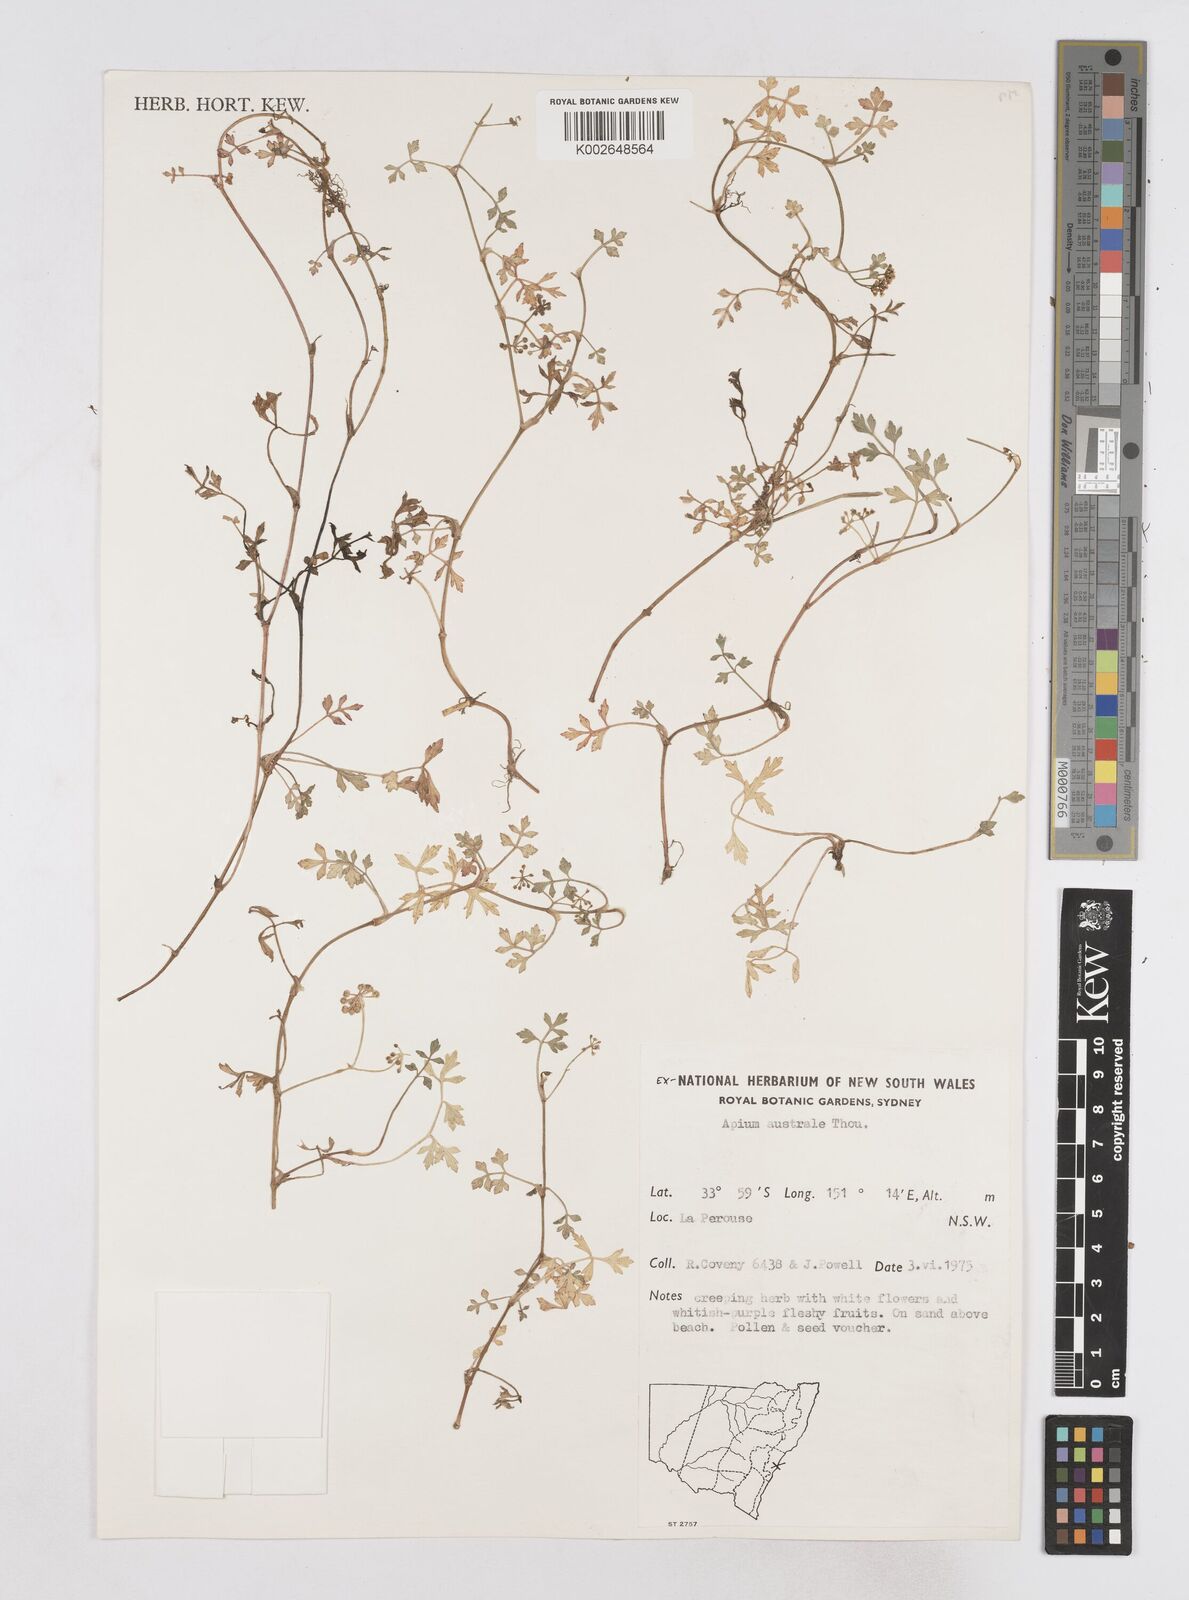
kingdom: Plantae
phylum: Tracheophyta
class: Magnoliopsida
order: Apiales
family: Apiaceae
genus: Apium
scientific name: Apium prostratum
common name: Prostrate marshwort
